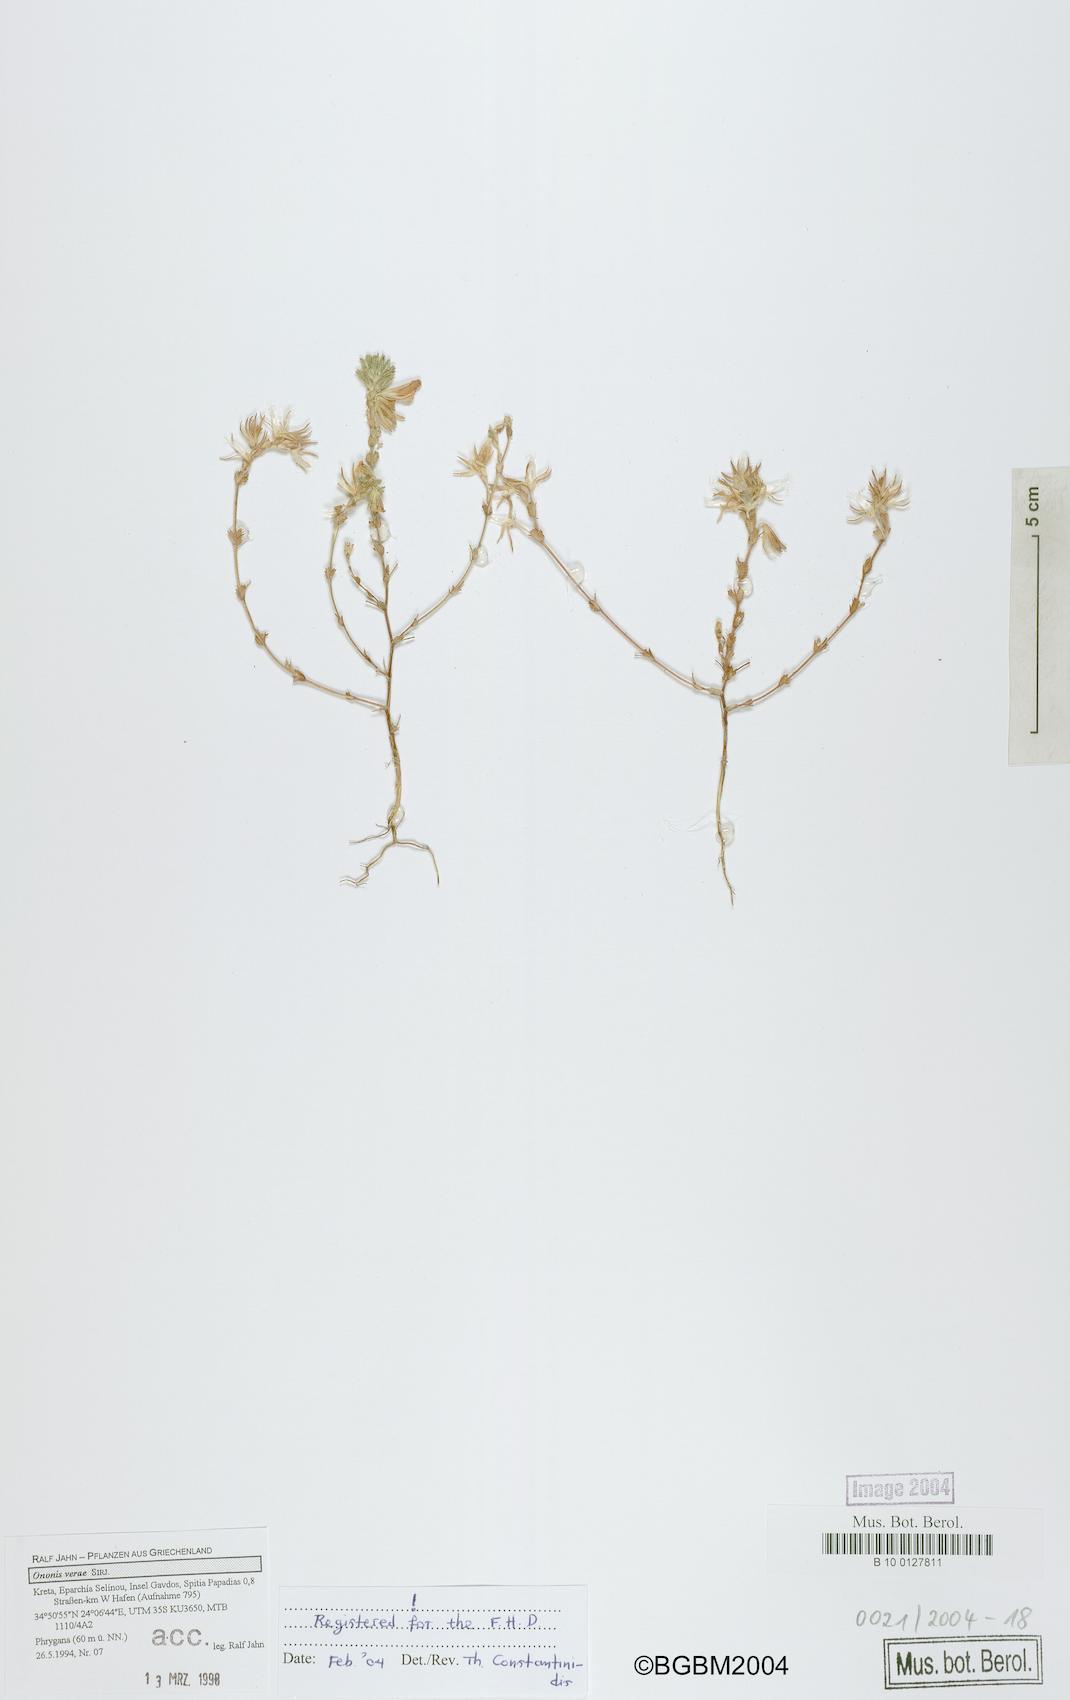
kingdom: Plantae
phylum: Tracheophyta
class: Magnoliopsida
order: Fabales
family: Fabaceae
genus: Ononis
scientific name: Ononis verae
